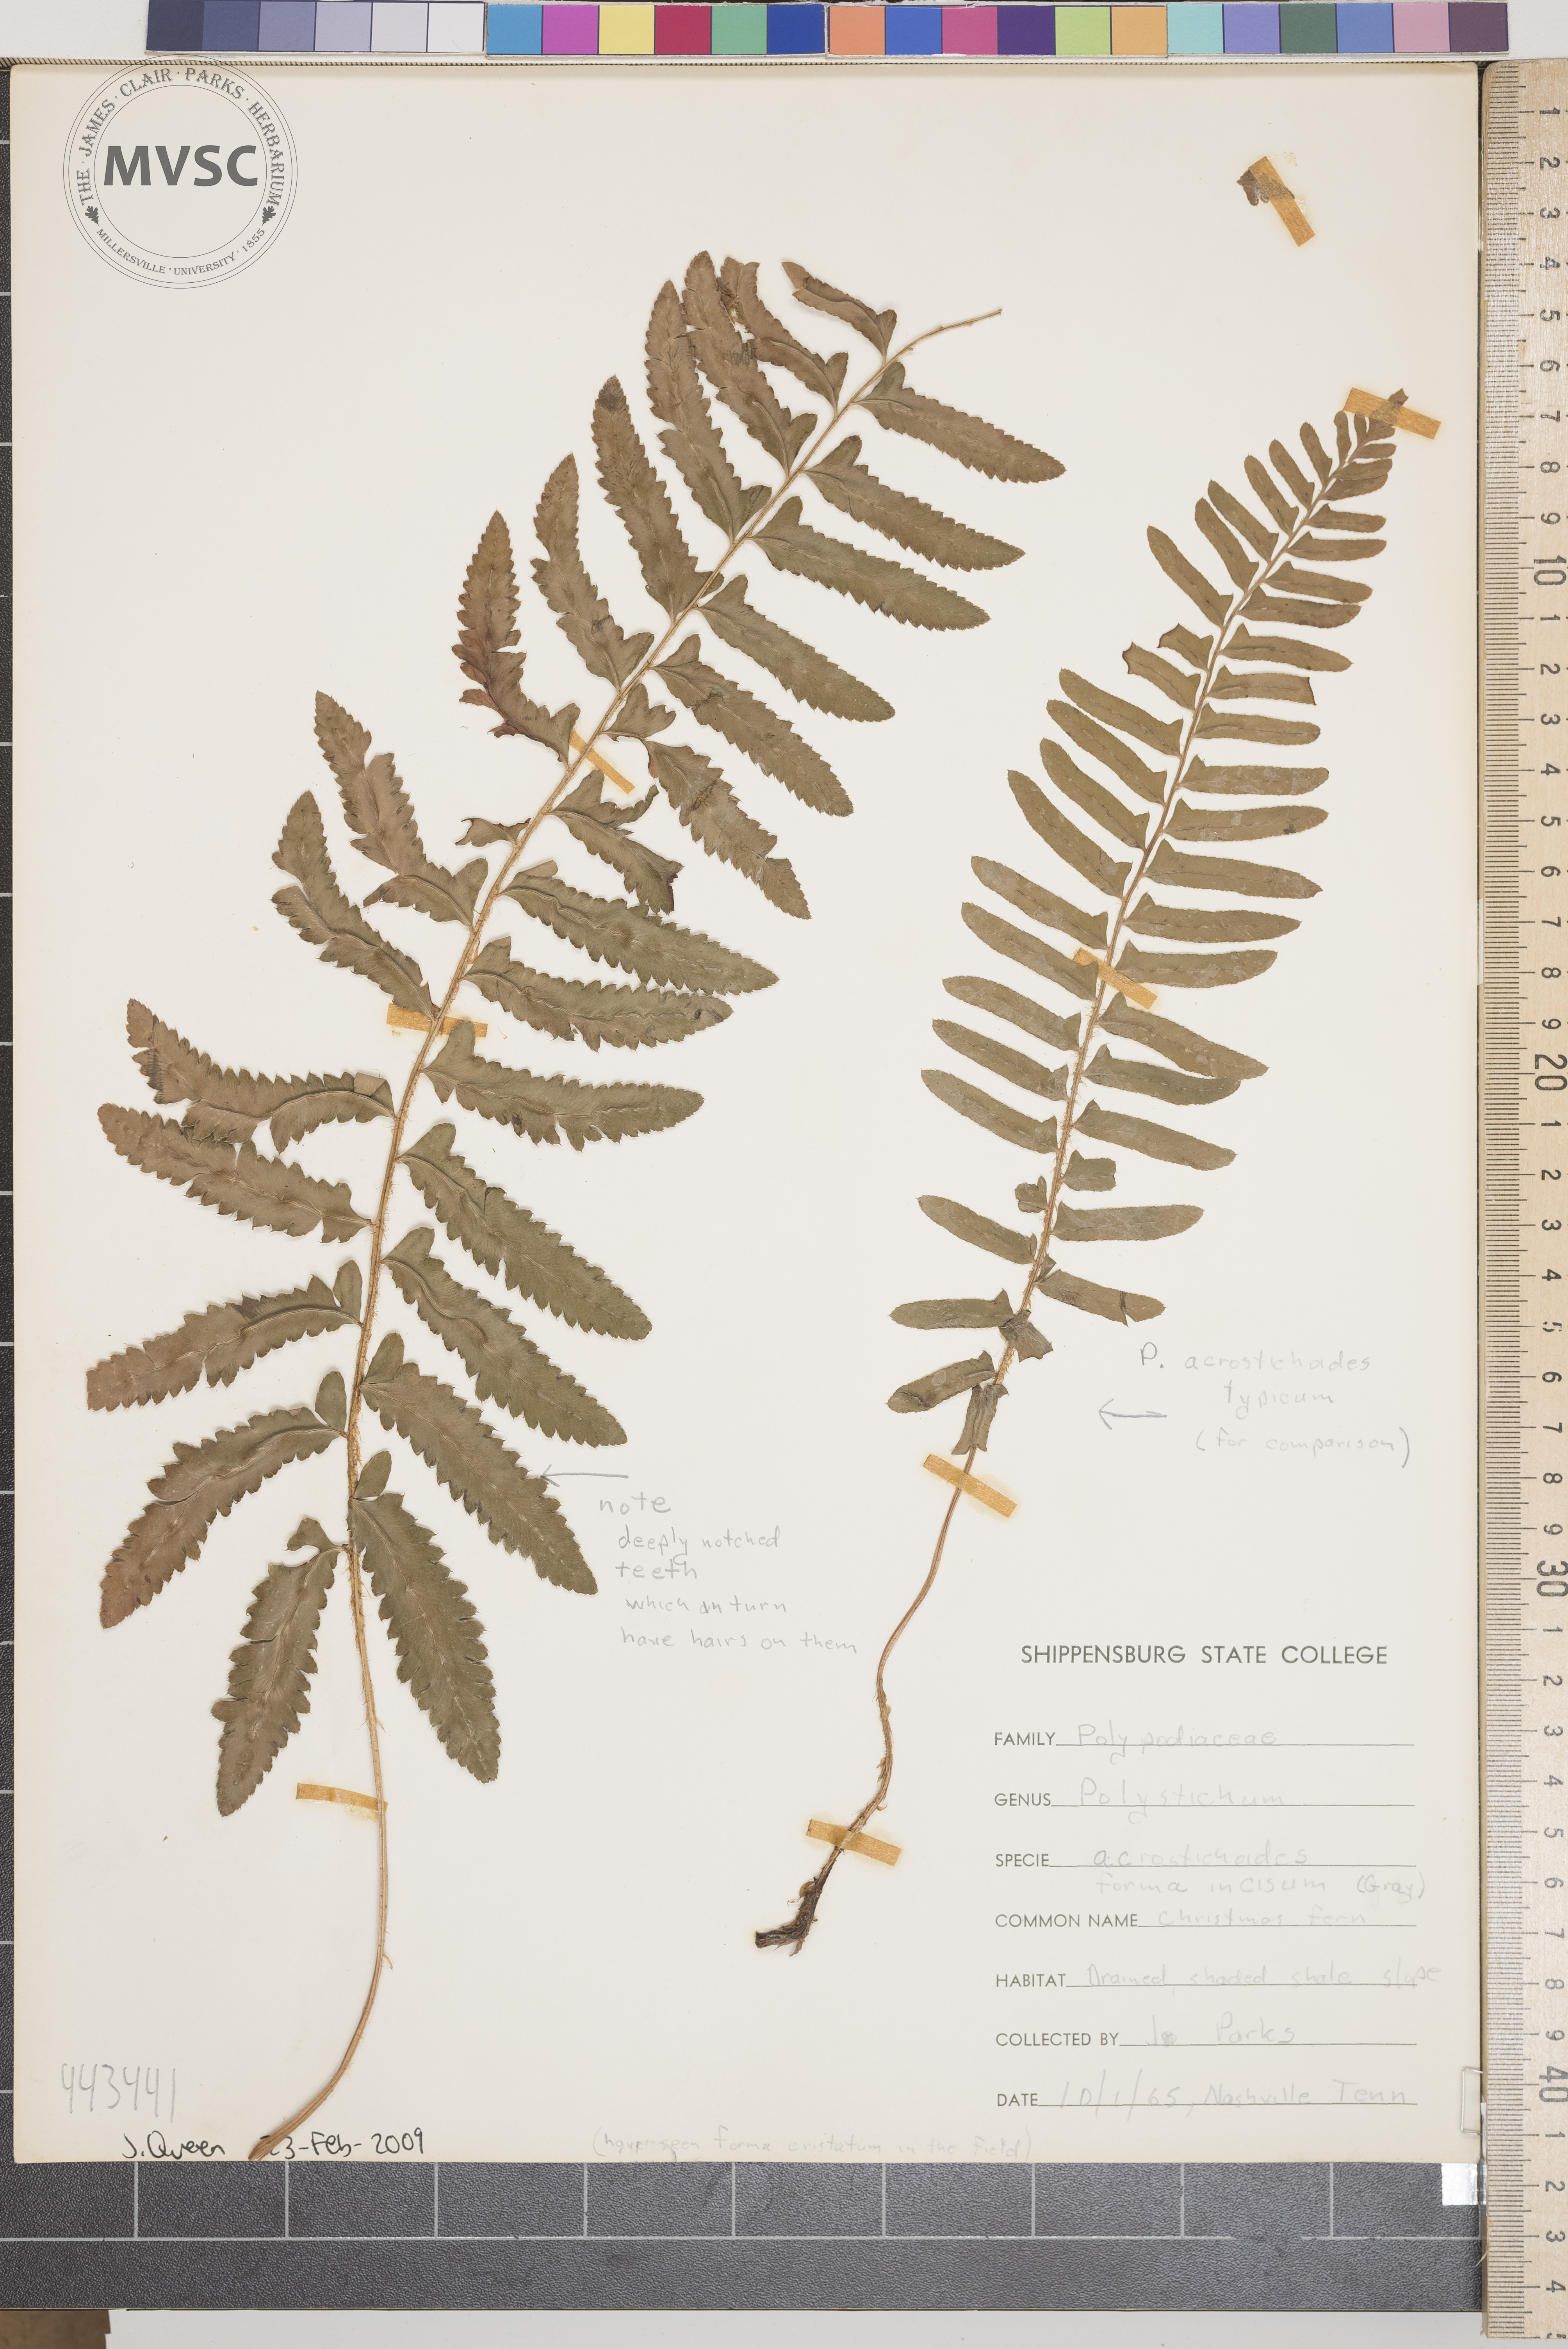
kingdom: Plantae
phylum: Tracheophyta
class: Polypodiopsida
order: Polypodiales
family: Dryopteridaceae
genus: Polystichum
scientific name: Polystichum acrostichoides
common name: Christmas Fern
